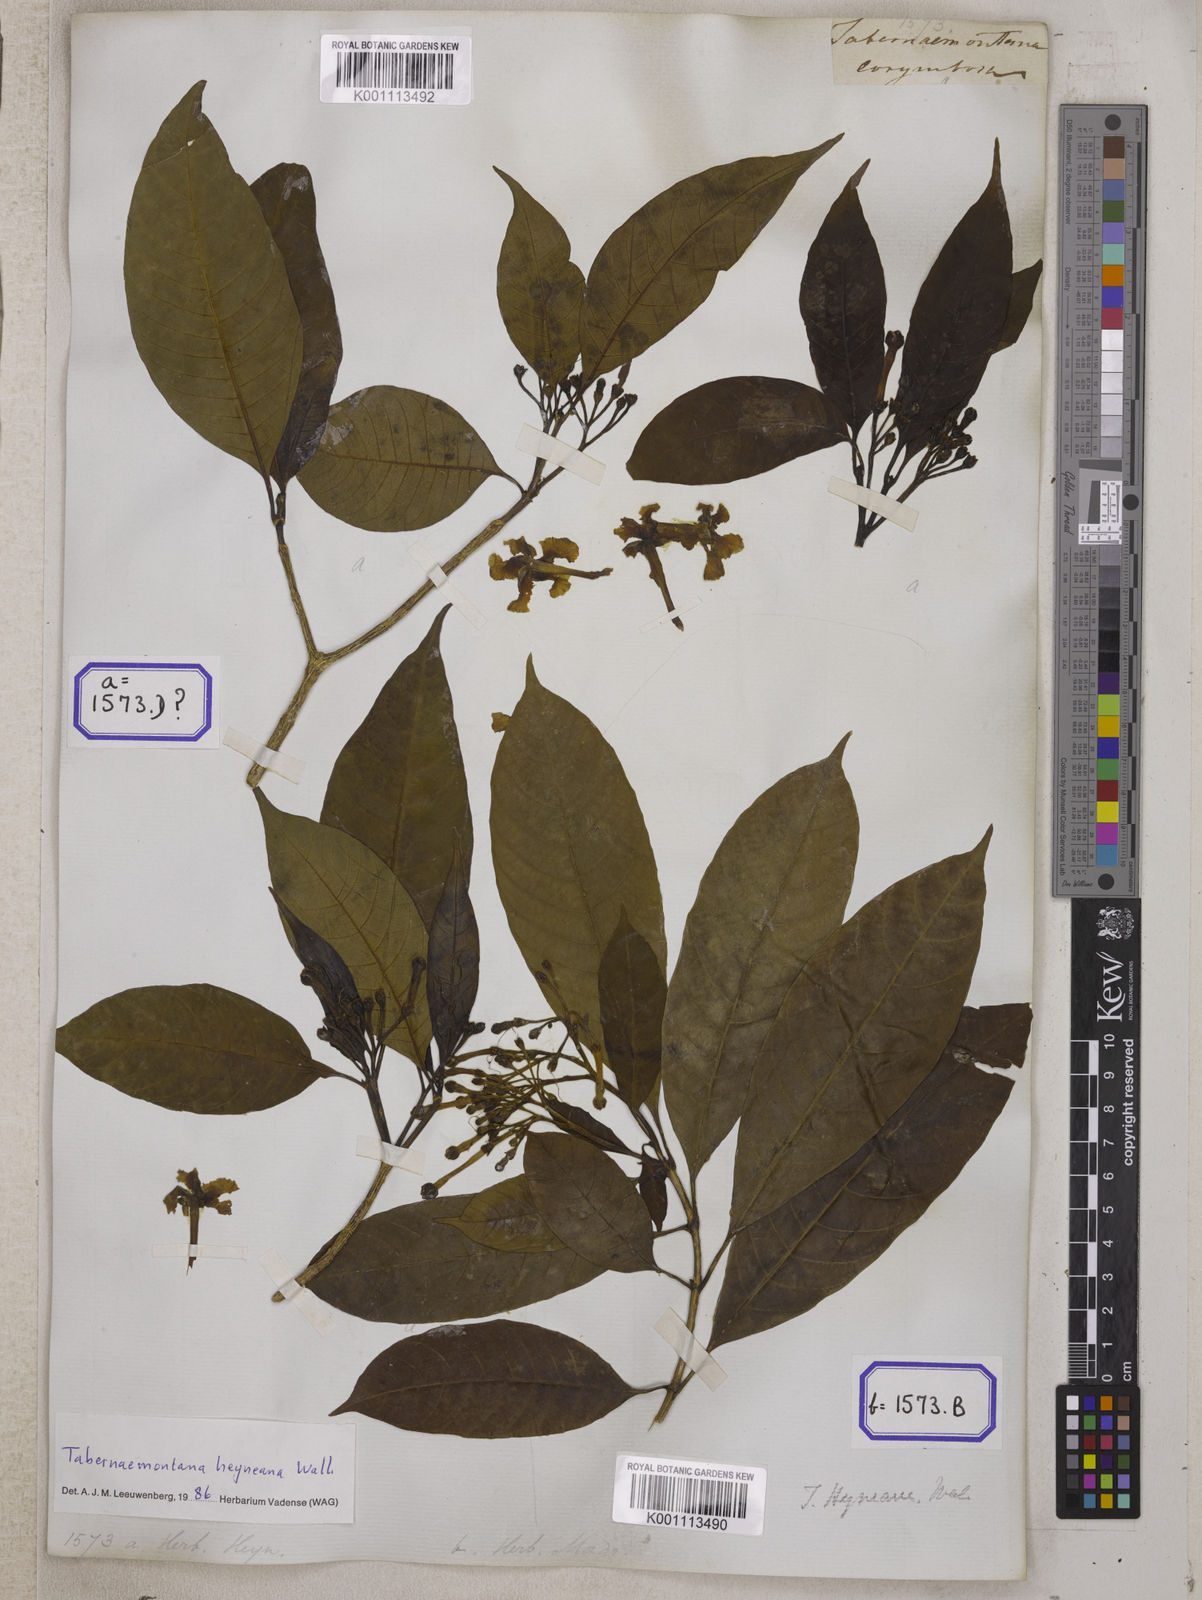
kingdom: Plantae
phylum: Tracheophyta
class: Magnoliopsida
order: Gentianales
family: Apocynaceae
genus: Tabernaemontana
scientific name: Tabernaemontana alternifolia
